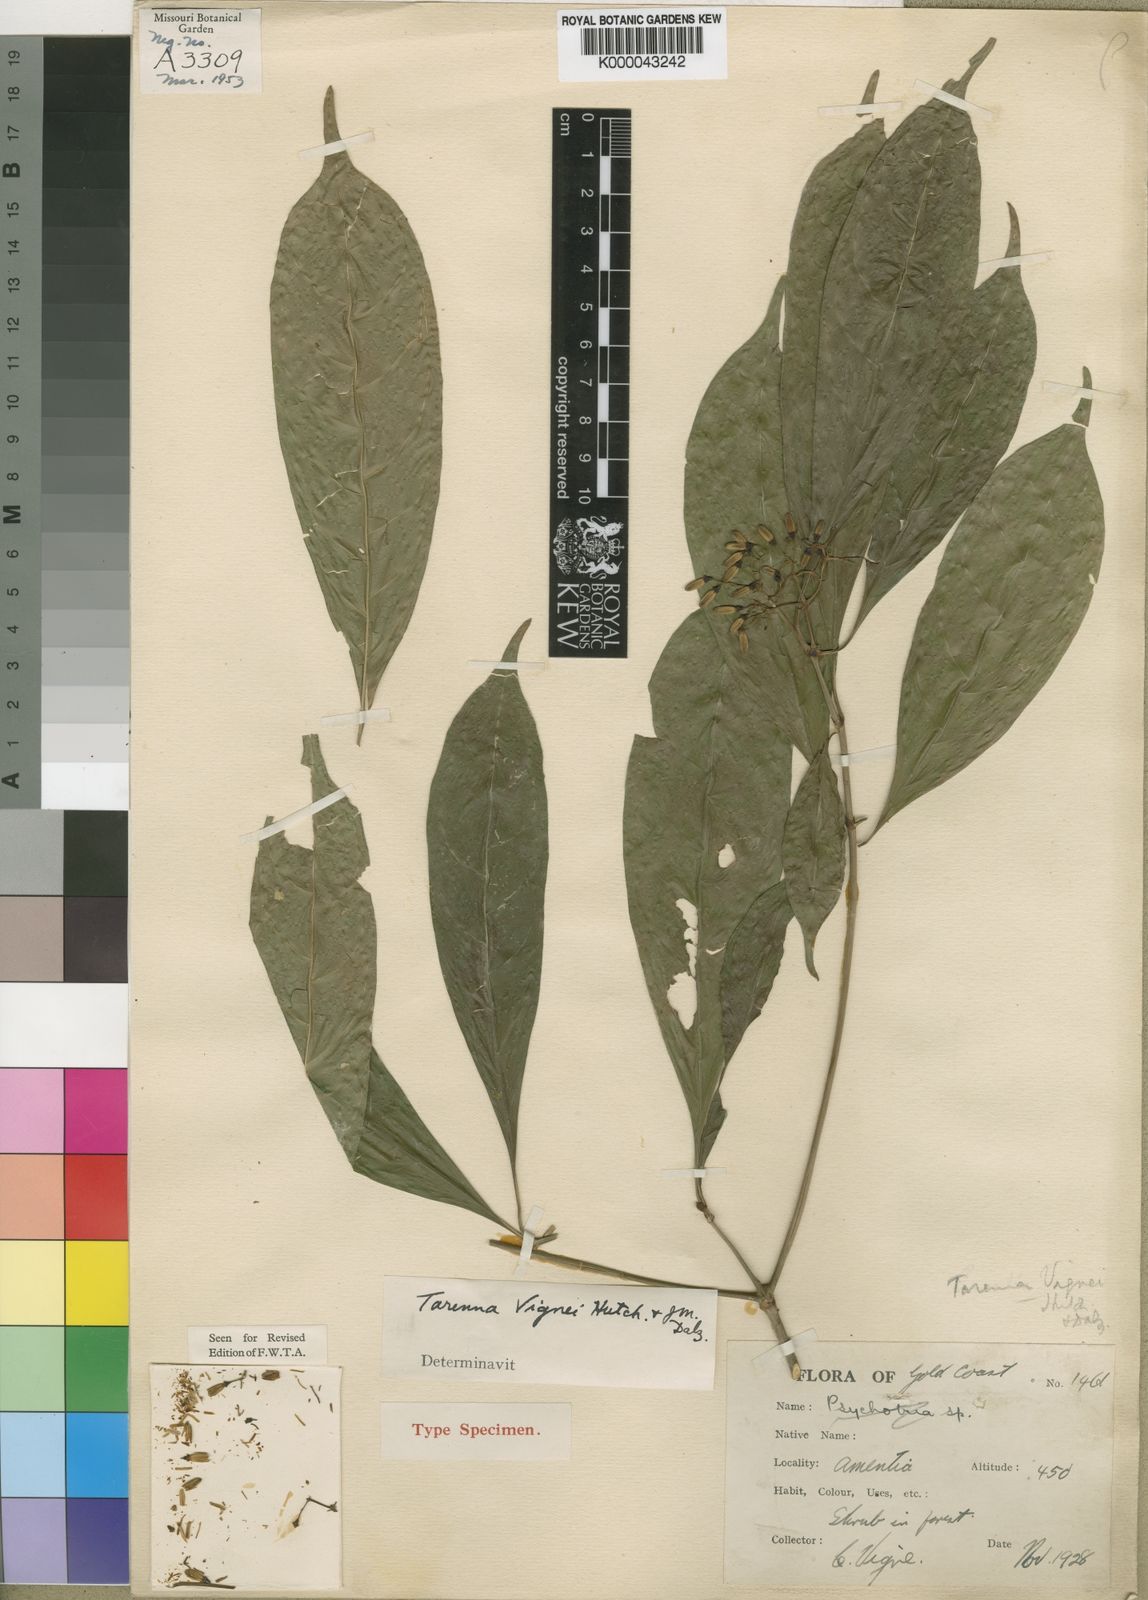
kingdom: Plantae
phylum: Tracheophyta
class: Magnoliopsida
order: Gentianales
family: Rubiaceae
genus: Tarenna
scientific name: Tarenna vignei
